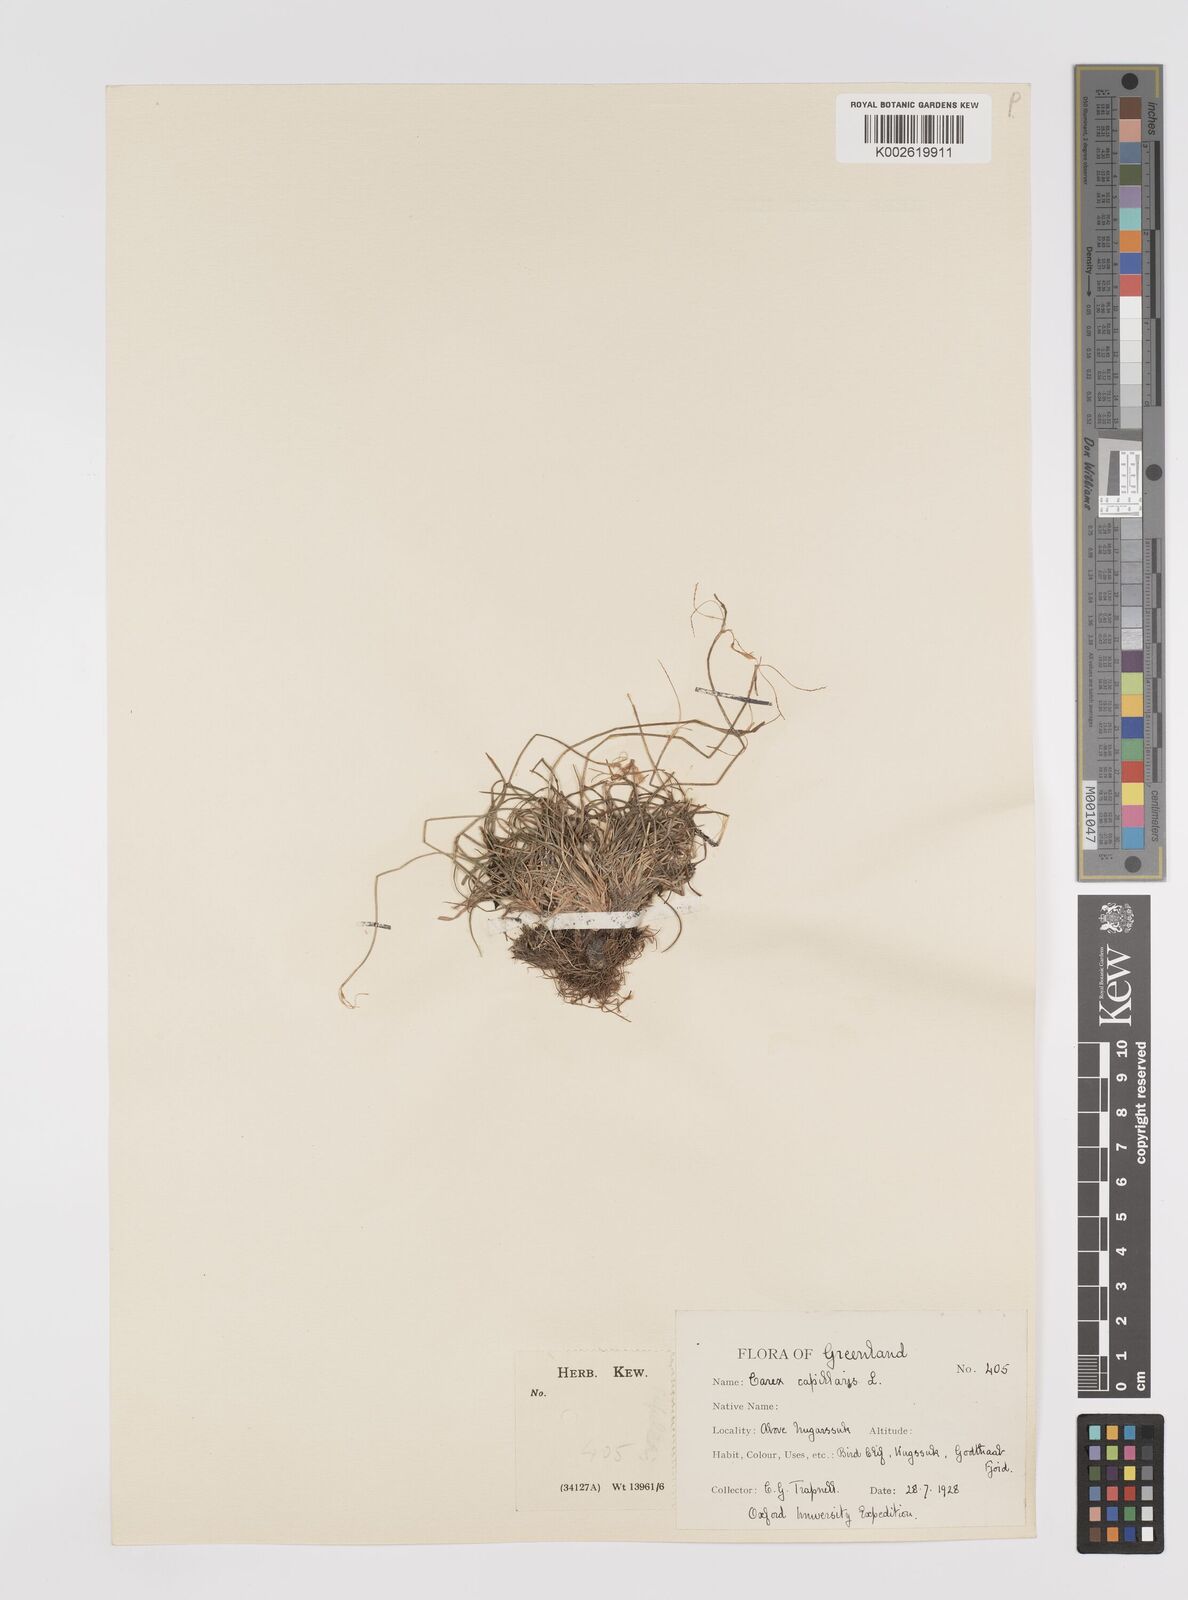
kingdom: Plantae
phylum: Tracheophyta
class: Liliopsida
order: Poales
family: Cyperaceae
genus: Carex
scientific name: Carex capillaris
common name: Hair sedge
